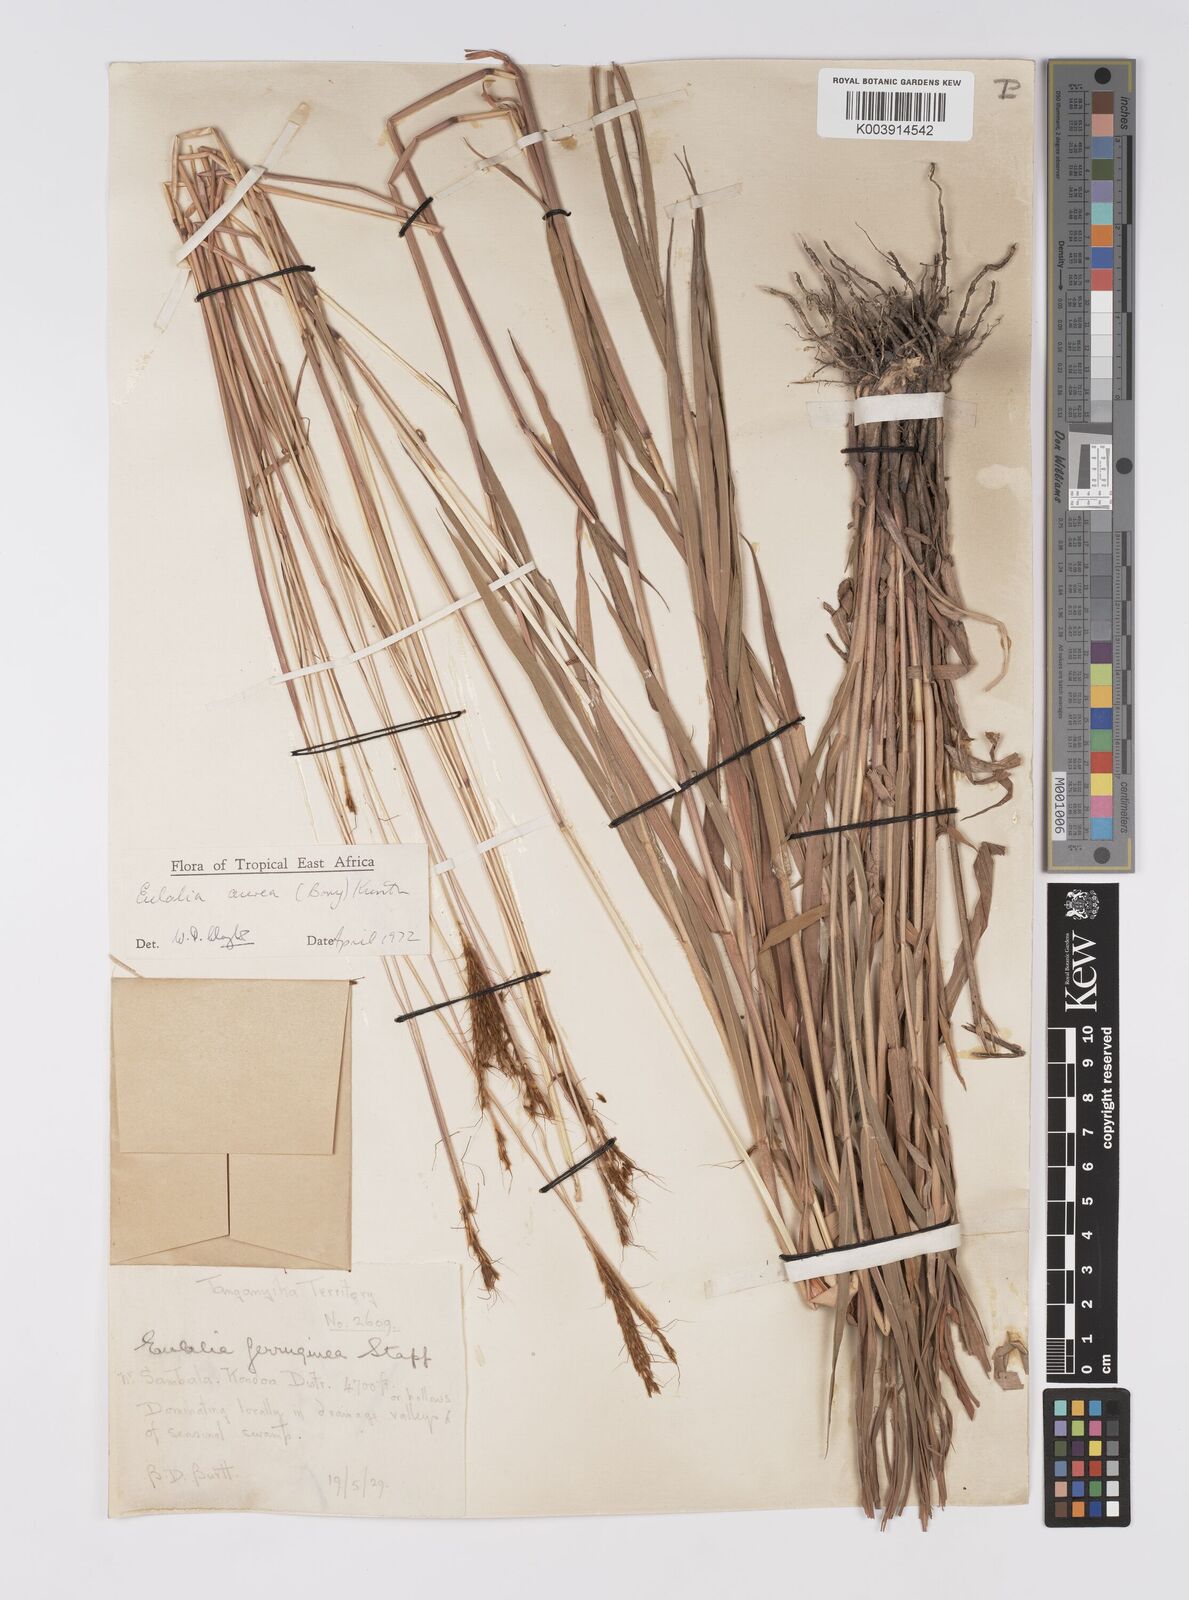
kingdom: Plantae
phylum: Tracheophyta
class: Liliopsida
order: Poales
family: Poaceae
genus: Eulalia
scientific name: Eulalia aurea
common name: Silky browntop
